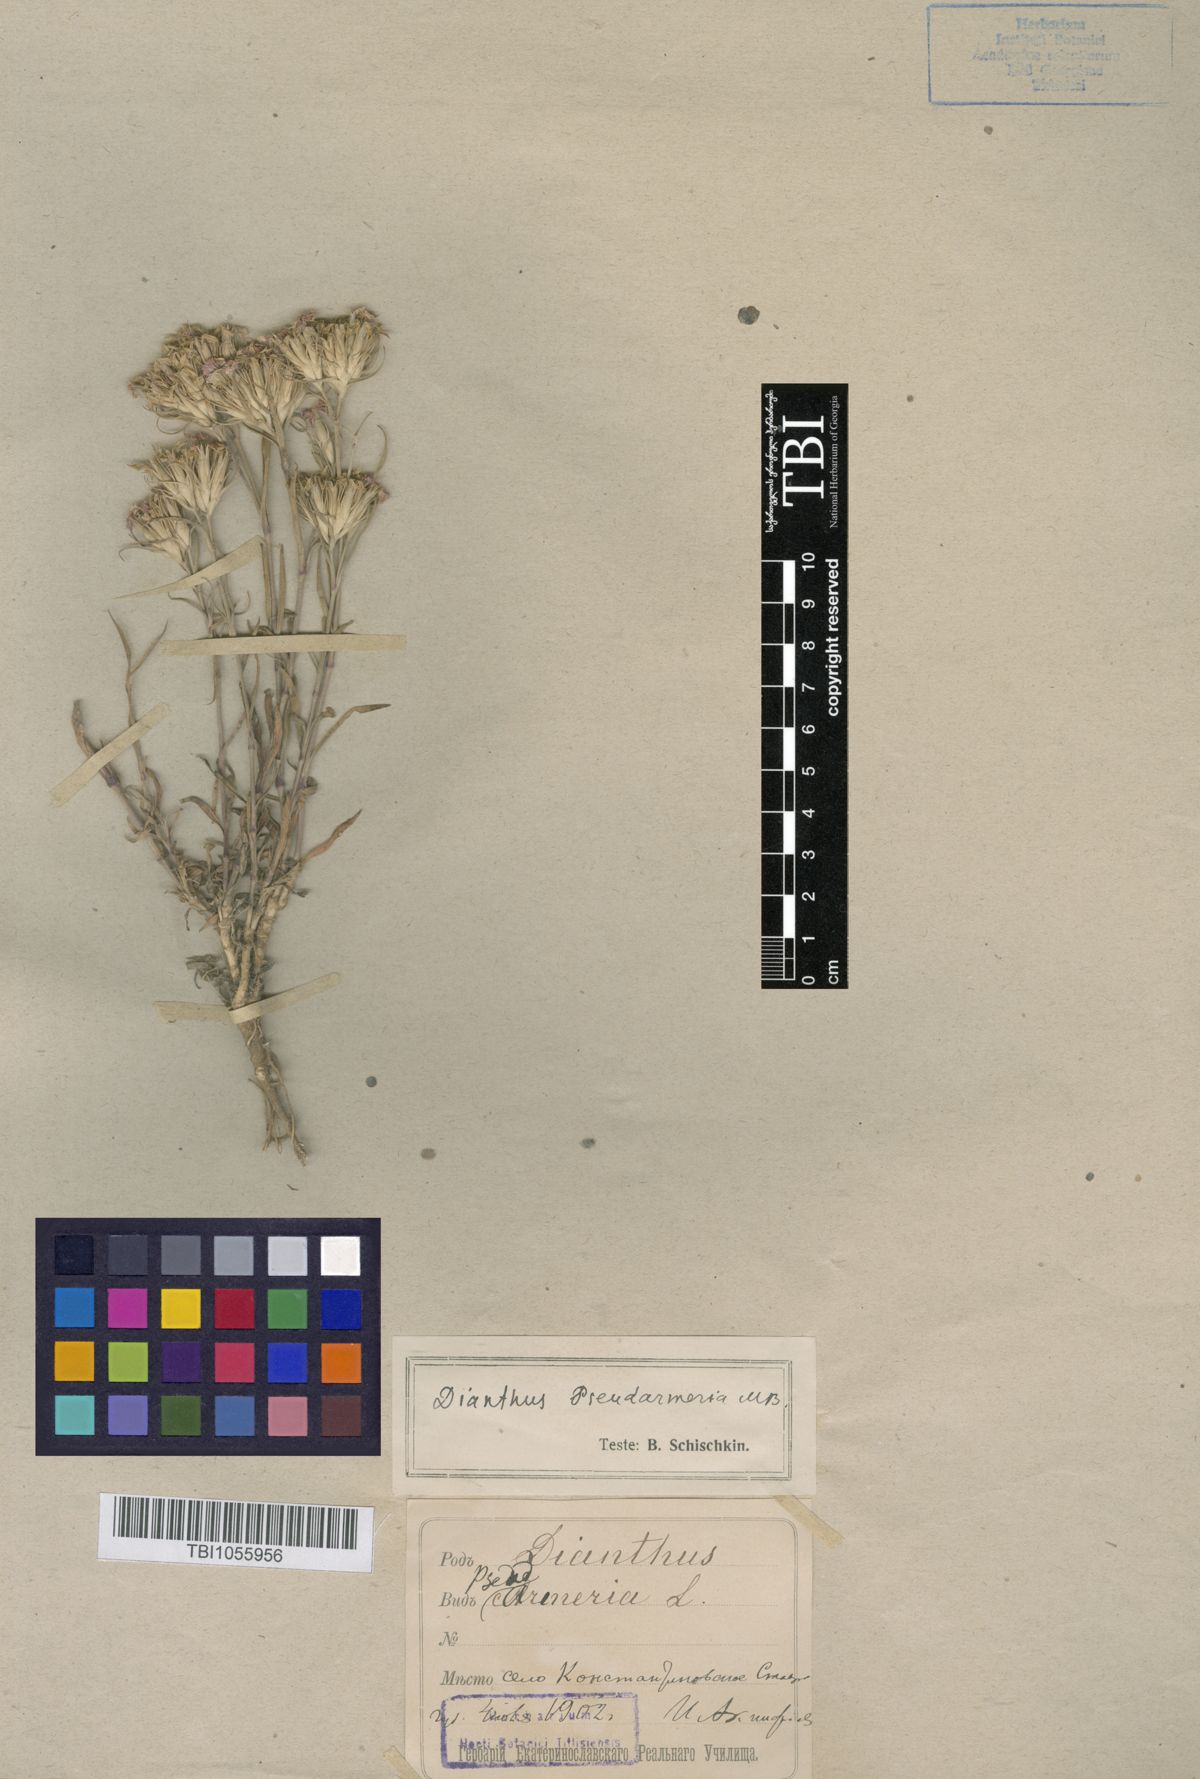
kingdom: Plantae
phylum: Tracheophyta
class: Magnoliopsida
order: Caryophyllales
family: Caryophyllaceae
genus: Dianthus
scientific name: Dianthus pseudarmeria
